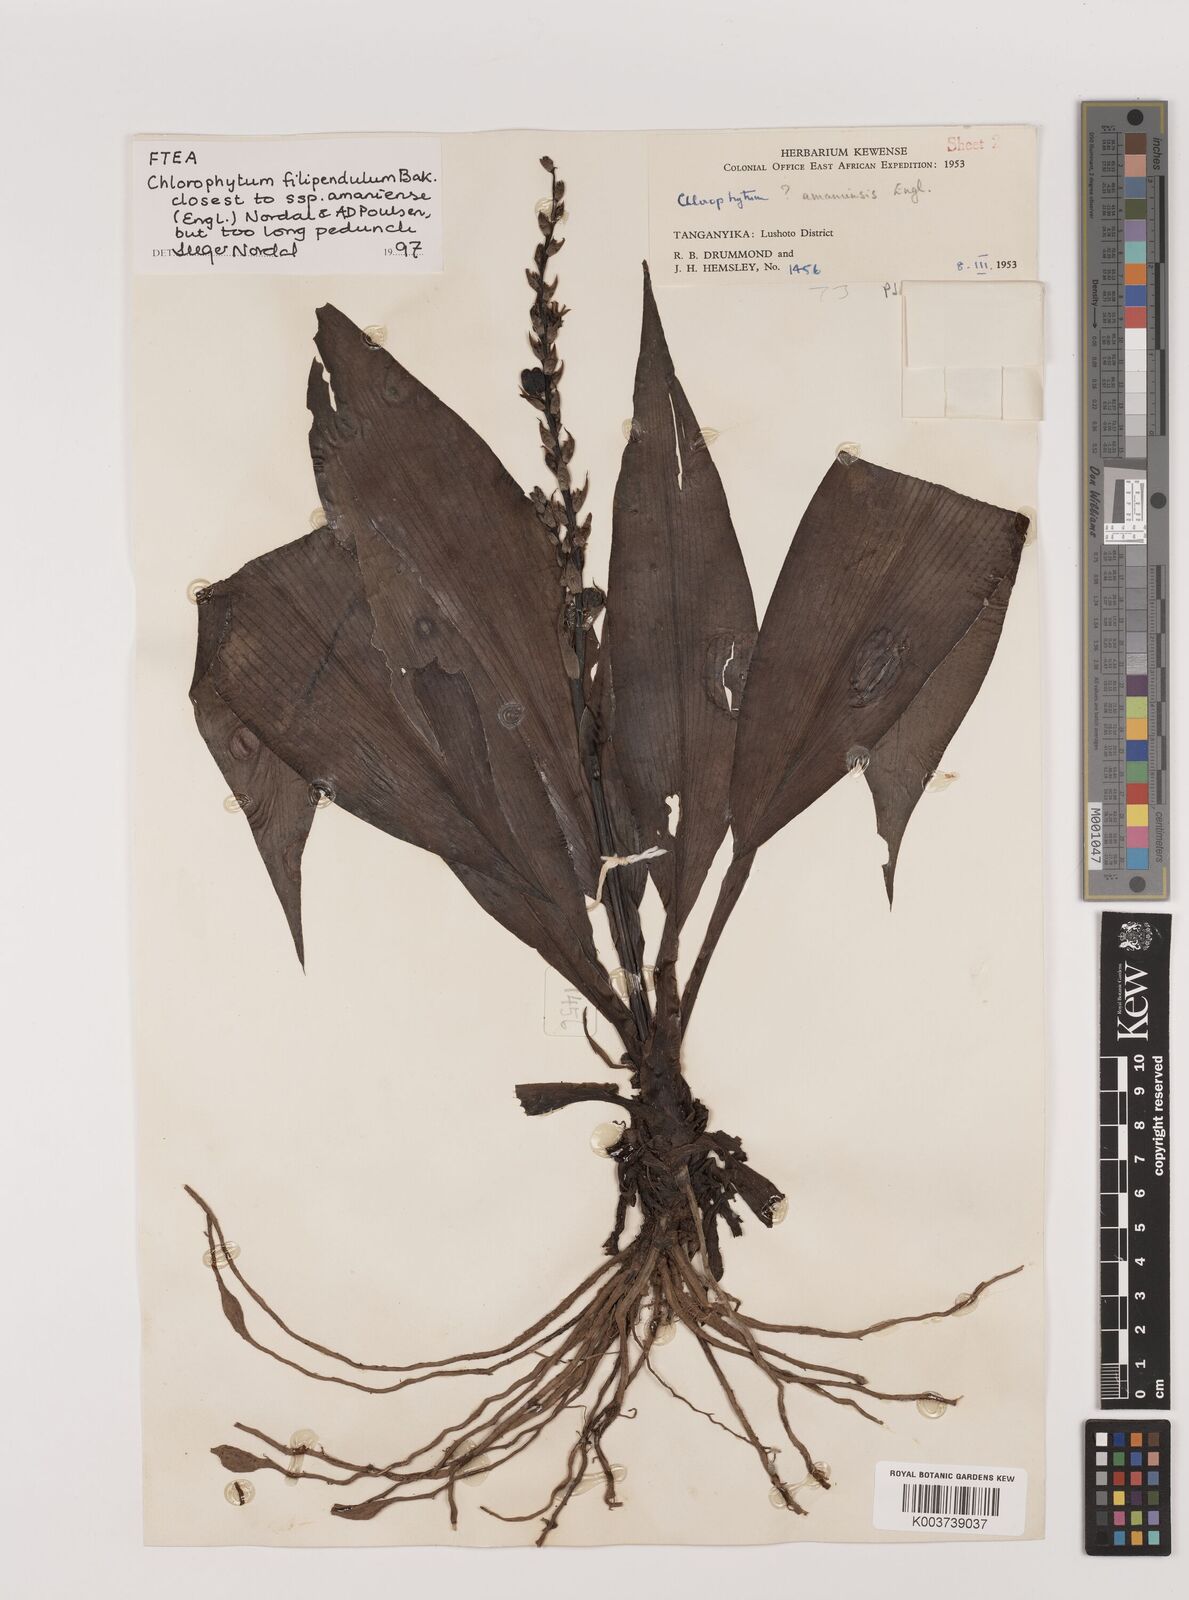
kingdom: Plantae
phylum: Tracheophyta
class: Liliopsida
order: Asparagales
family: Asparagaceae
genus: Chlorophytum
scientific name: Chlorophytum filipendulum
